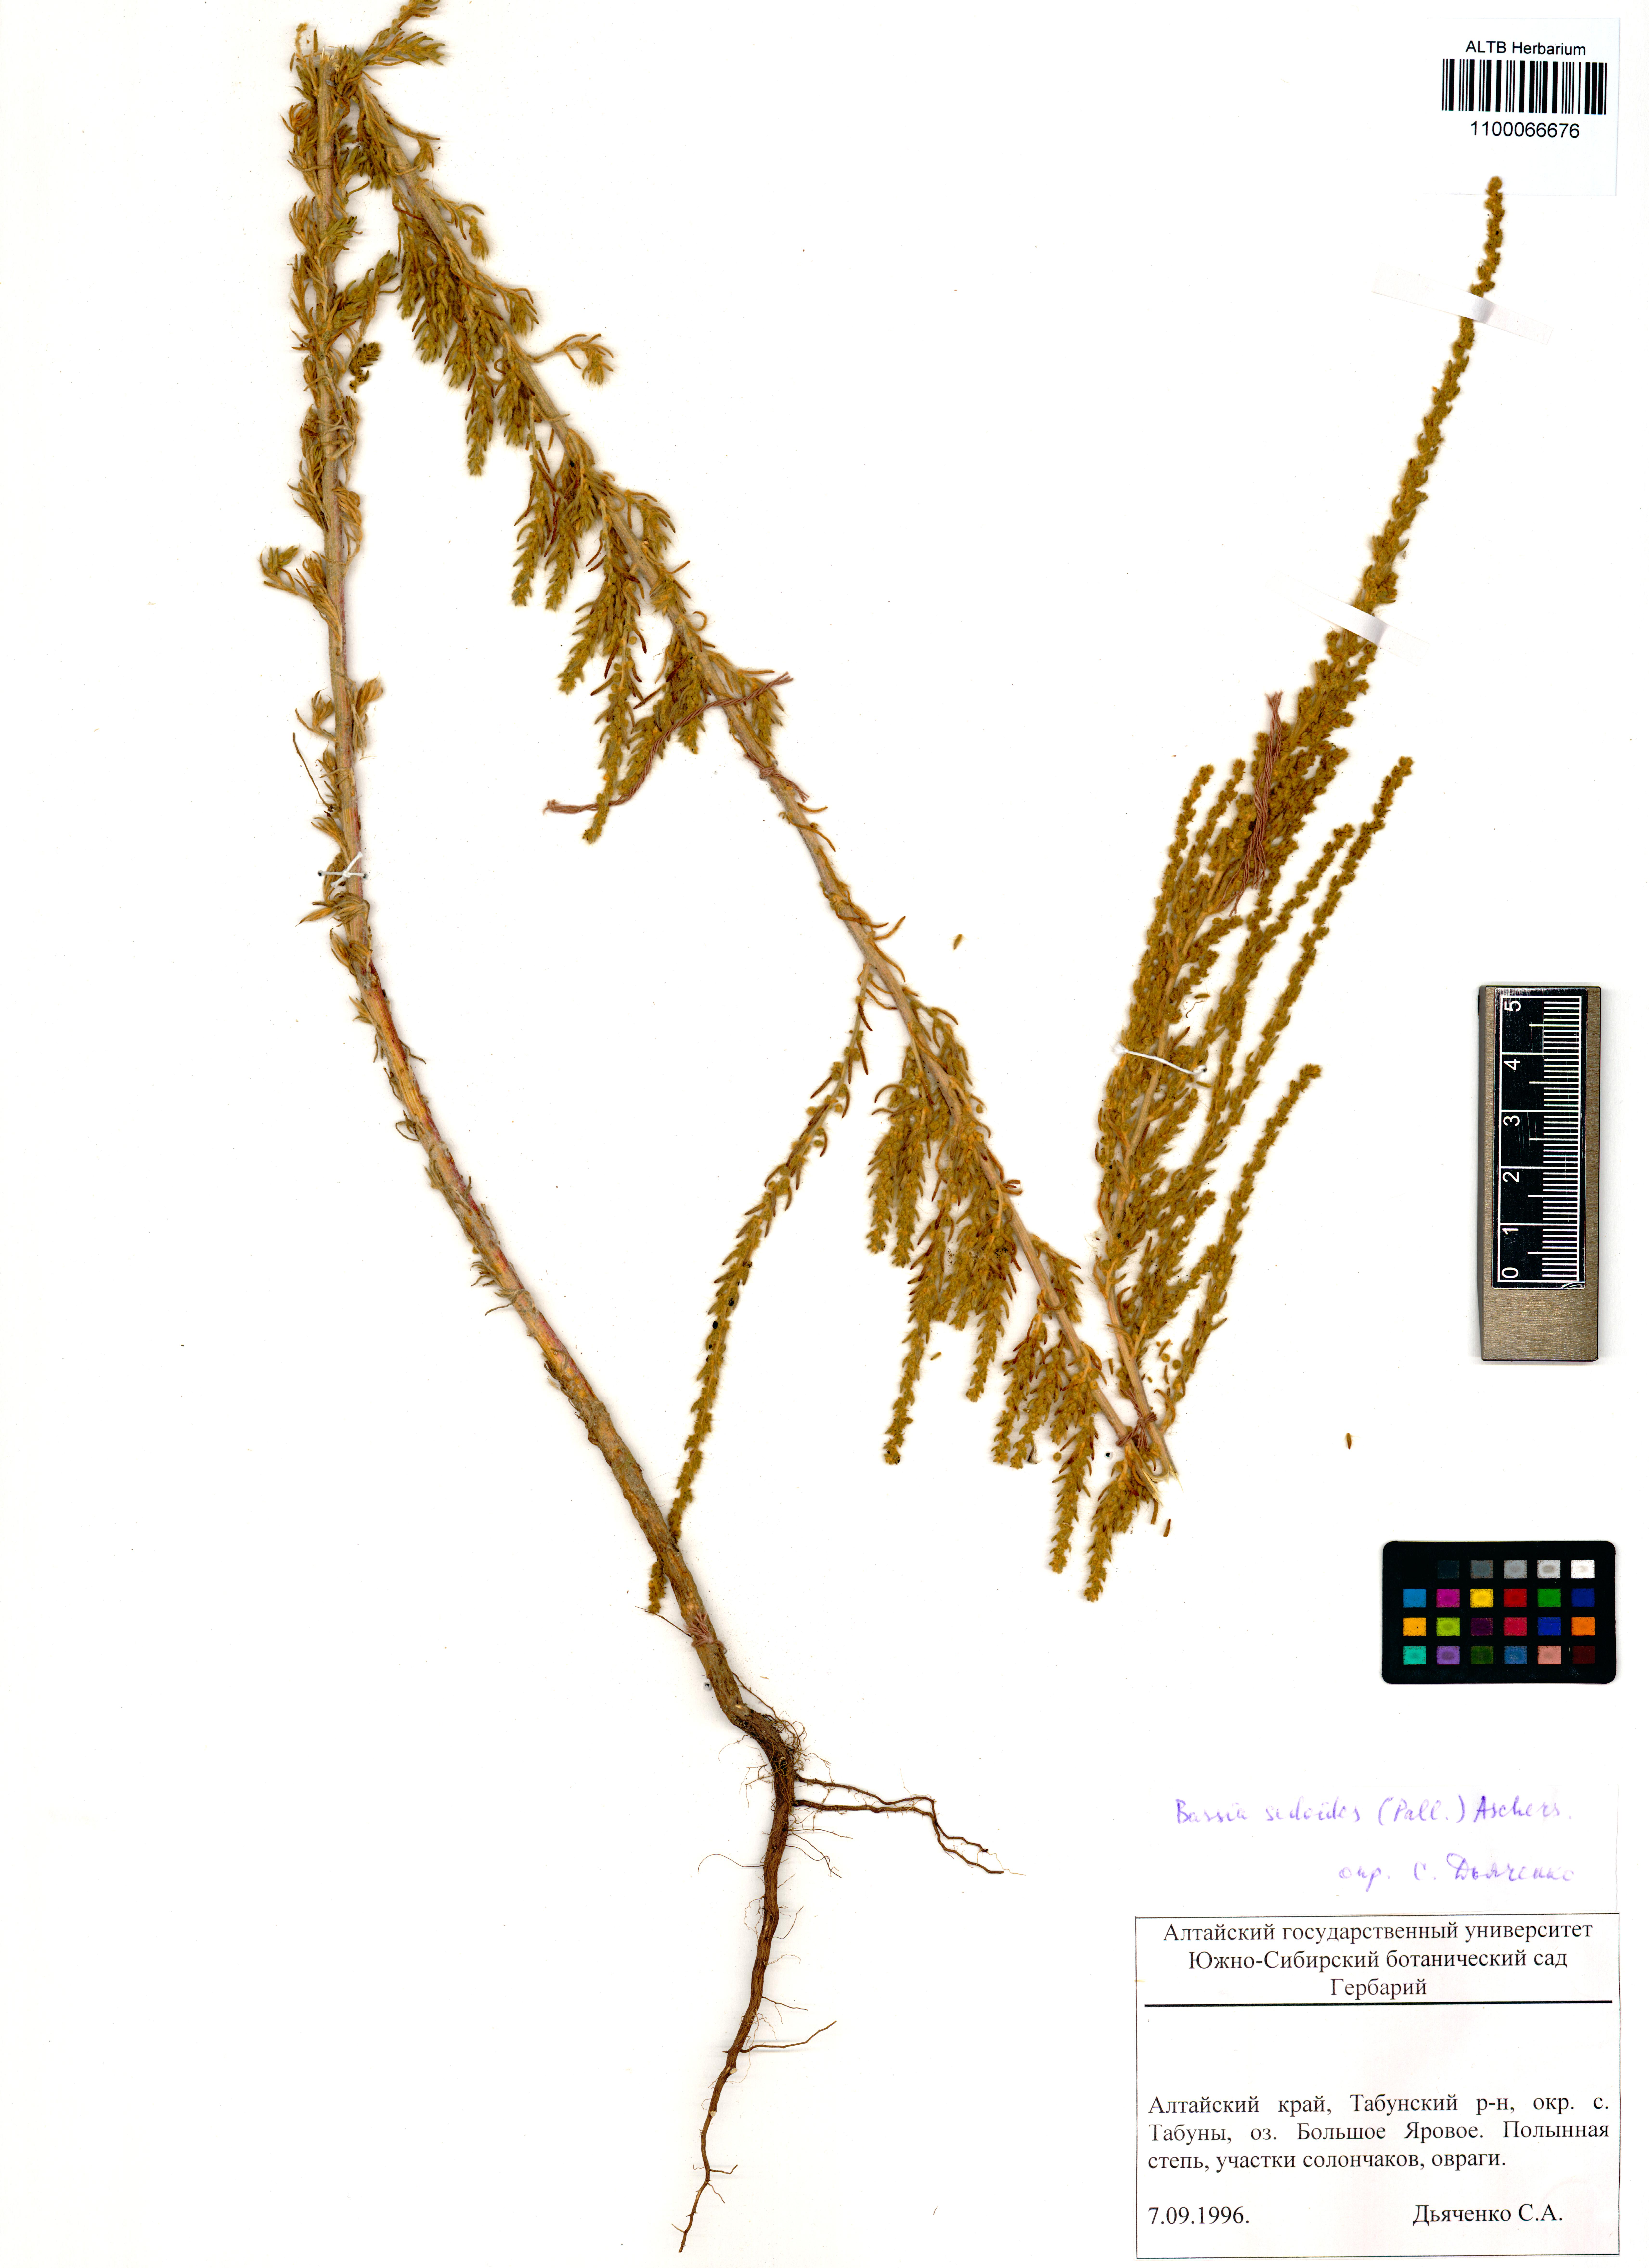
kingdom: Plantae
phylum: Tracheophyta
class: Magnoliopsida
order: Caryophyllales
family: Amaranthaceae
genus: Sedobassia
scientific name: Sedobassia sedoides
